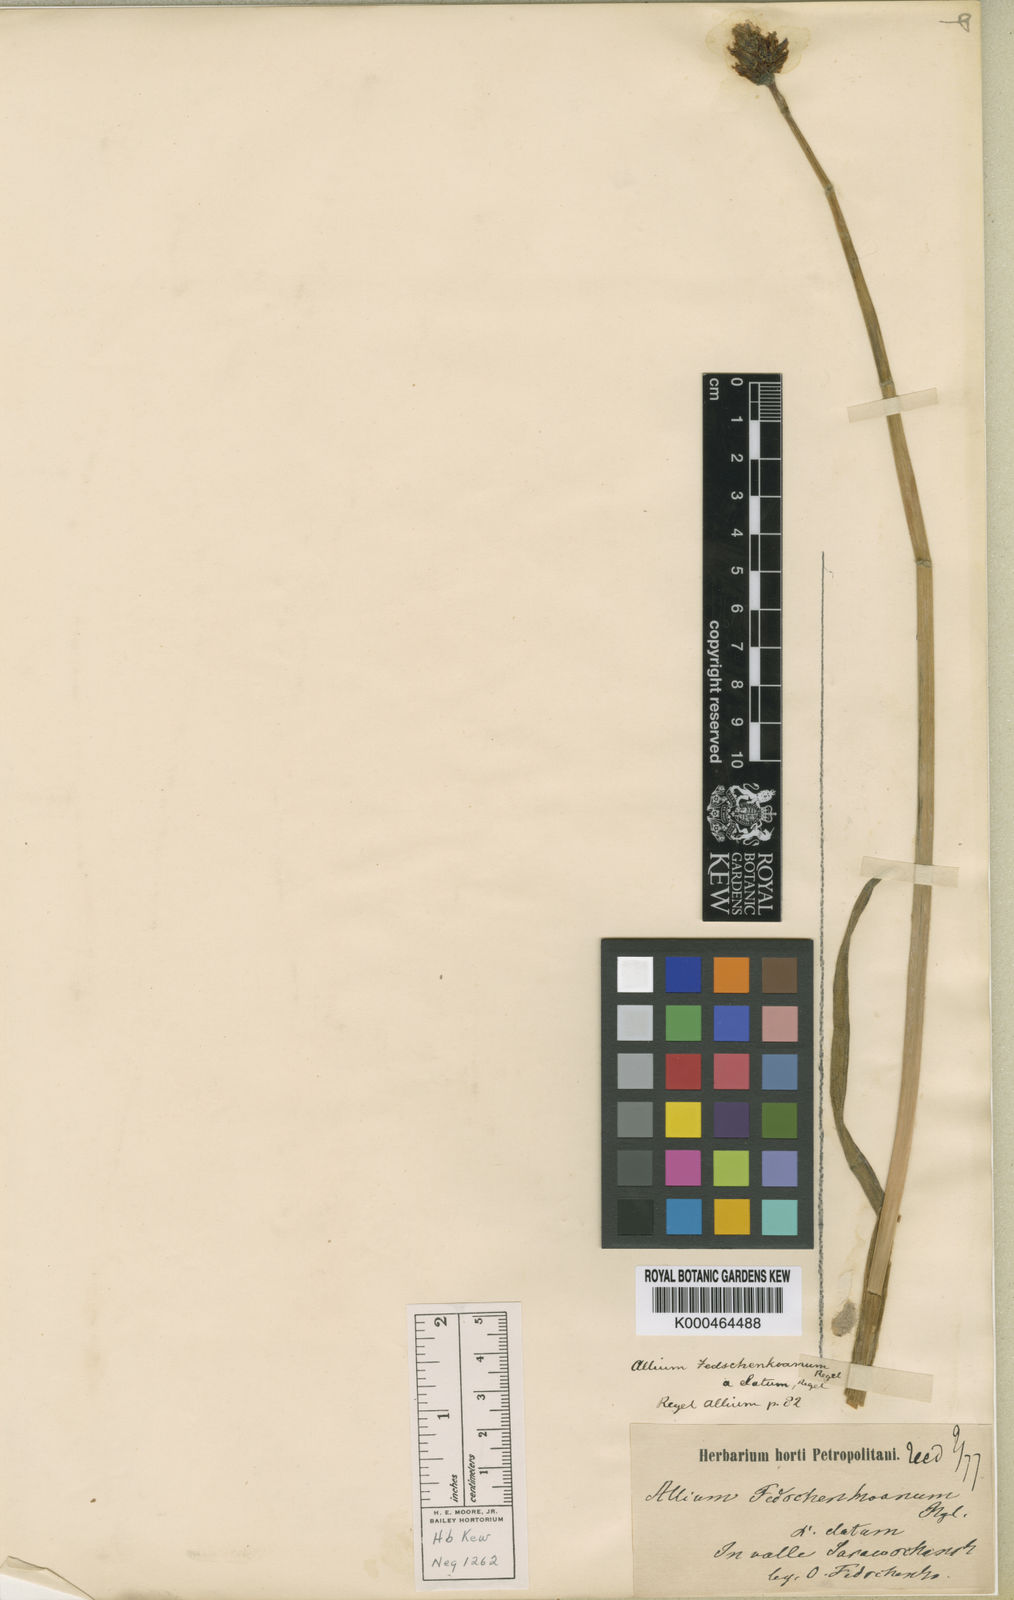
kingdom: Plantae
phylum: Tracheophyta
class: Liliopsida
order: Asparagales
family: Amaryllidaceae
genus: Allium
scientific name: Allium atrosanguineum
